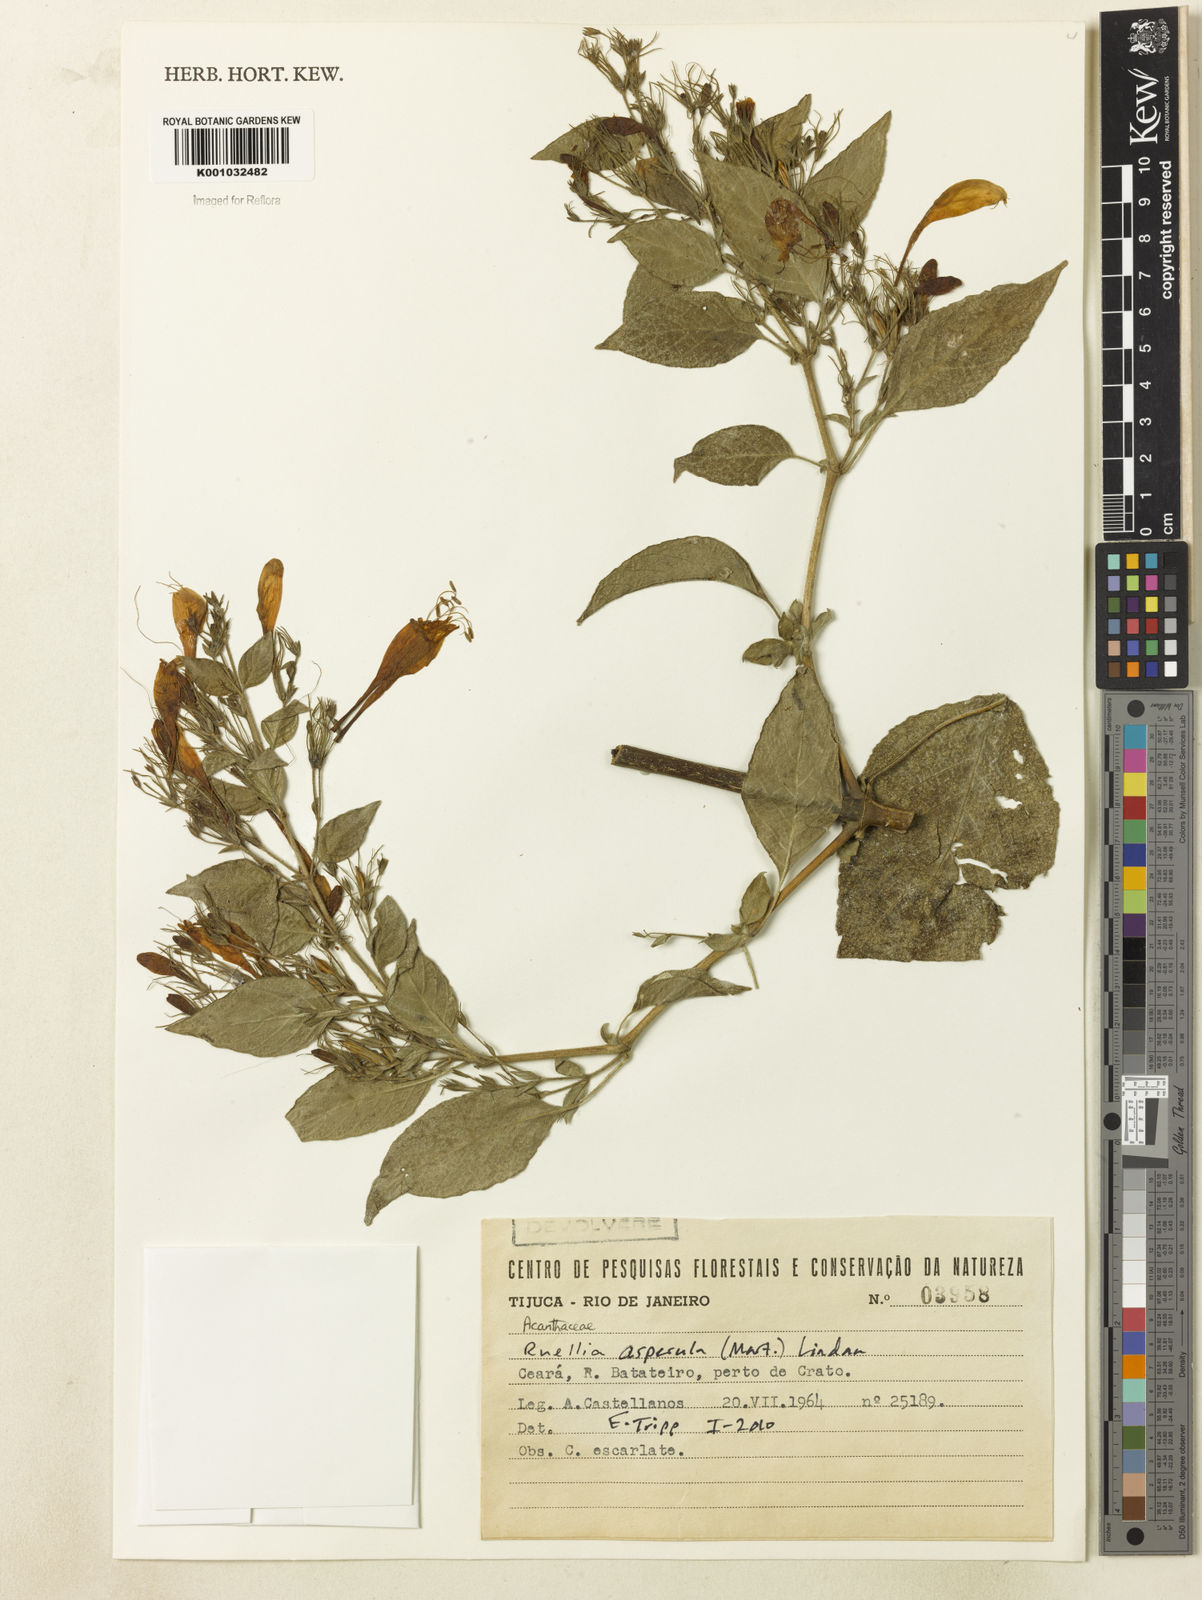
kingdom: Plantae
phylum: Tracheophyta
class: Magnoliopsida
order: Lamiales
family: Acanthaceae
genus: Ruellia
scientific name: Ruellia asperula
